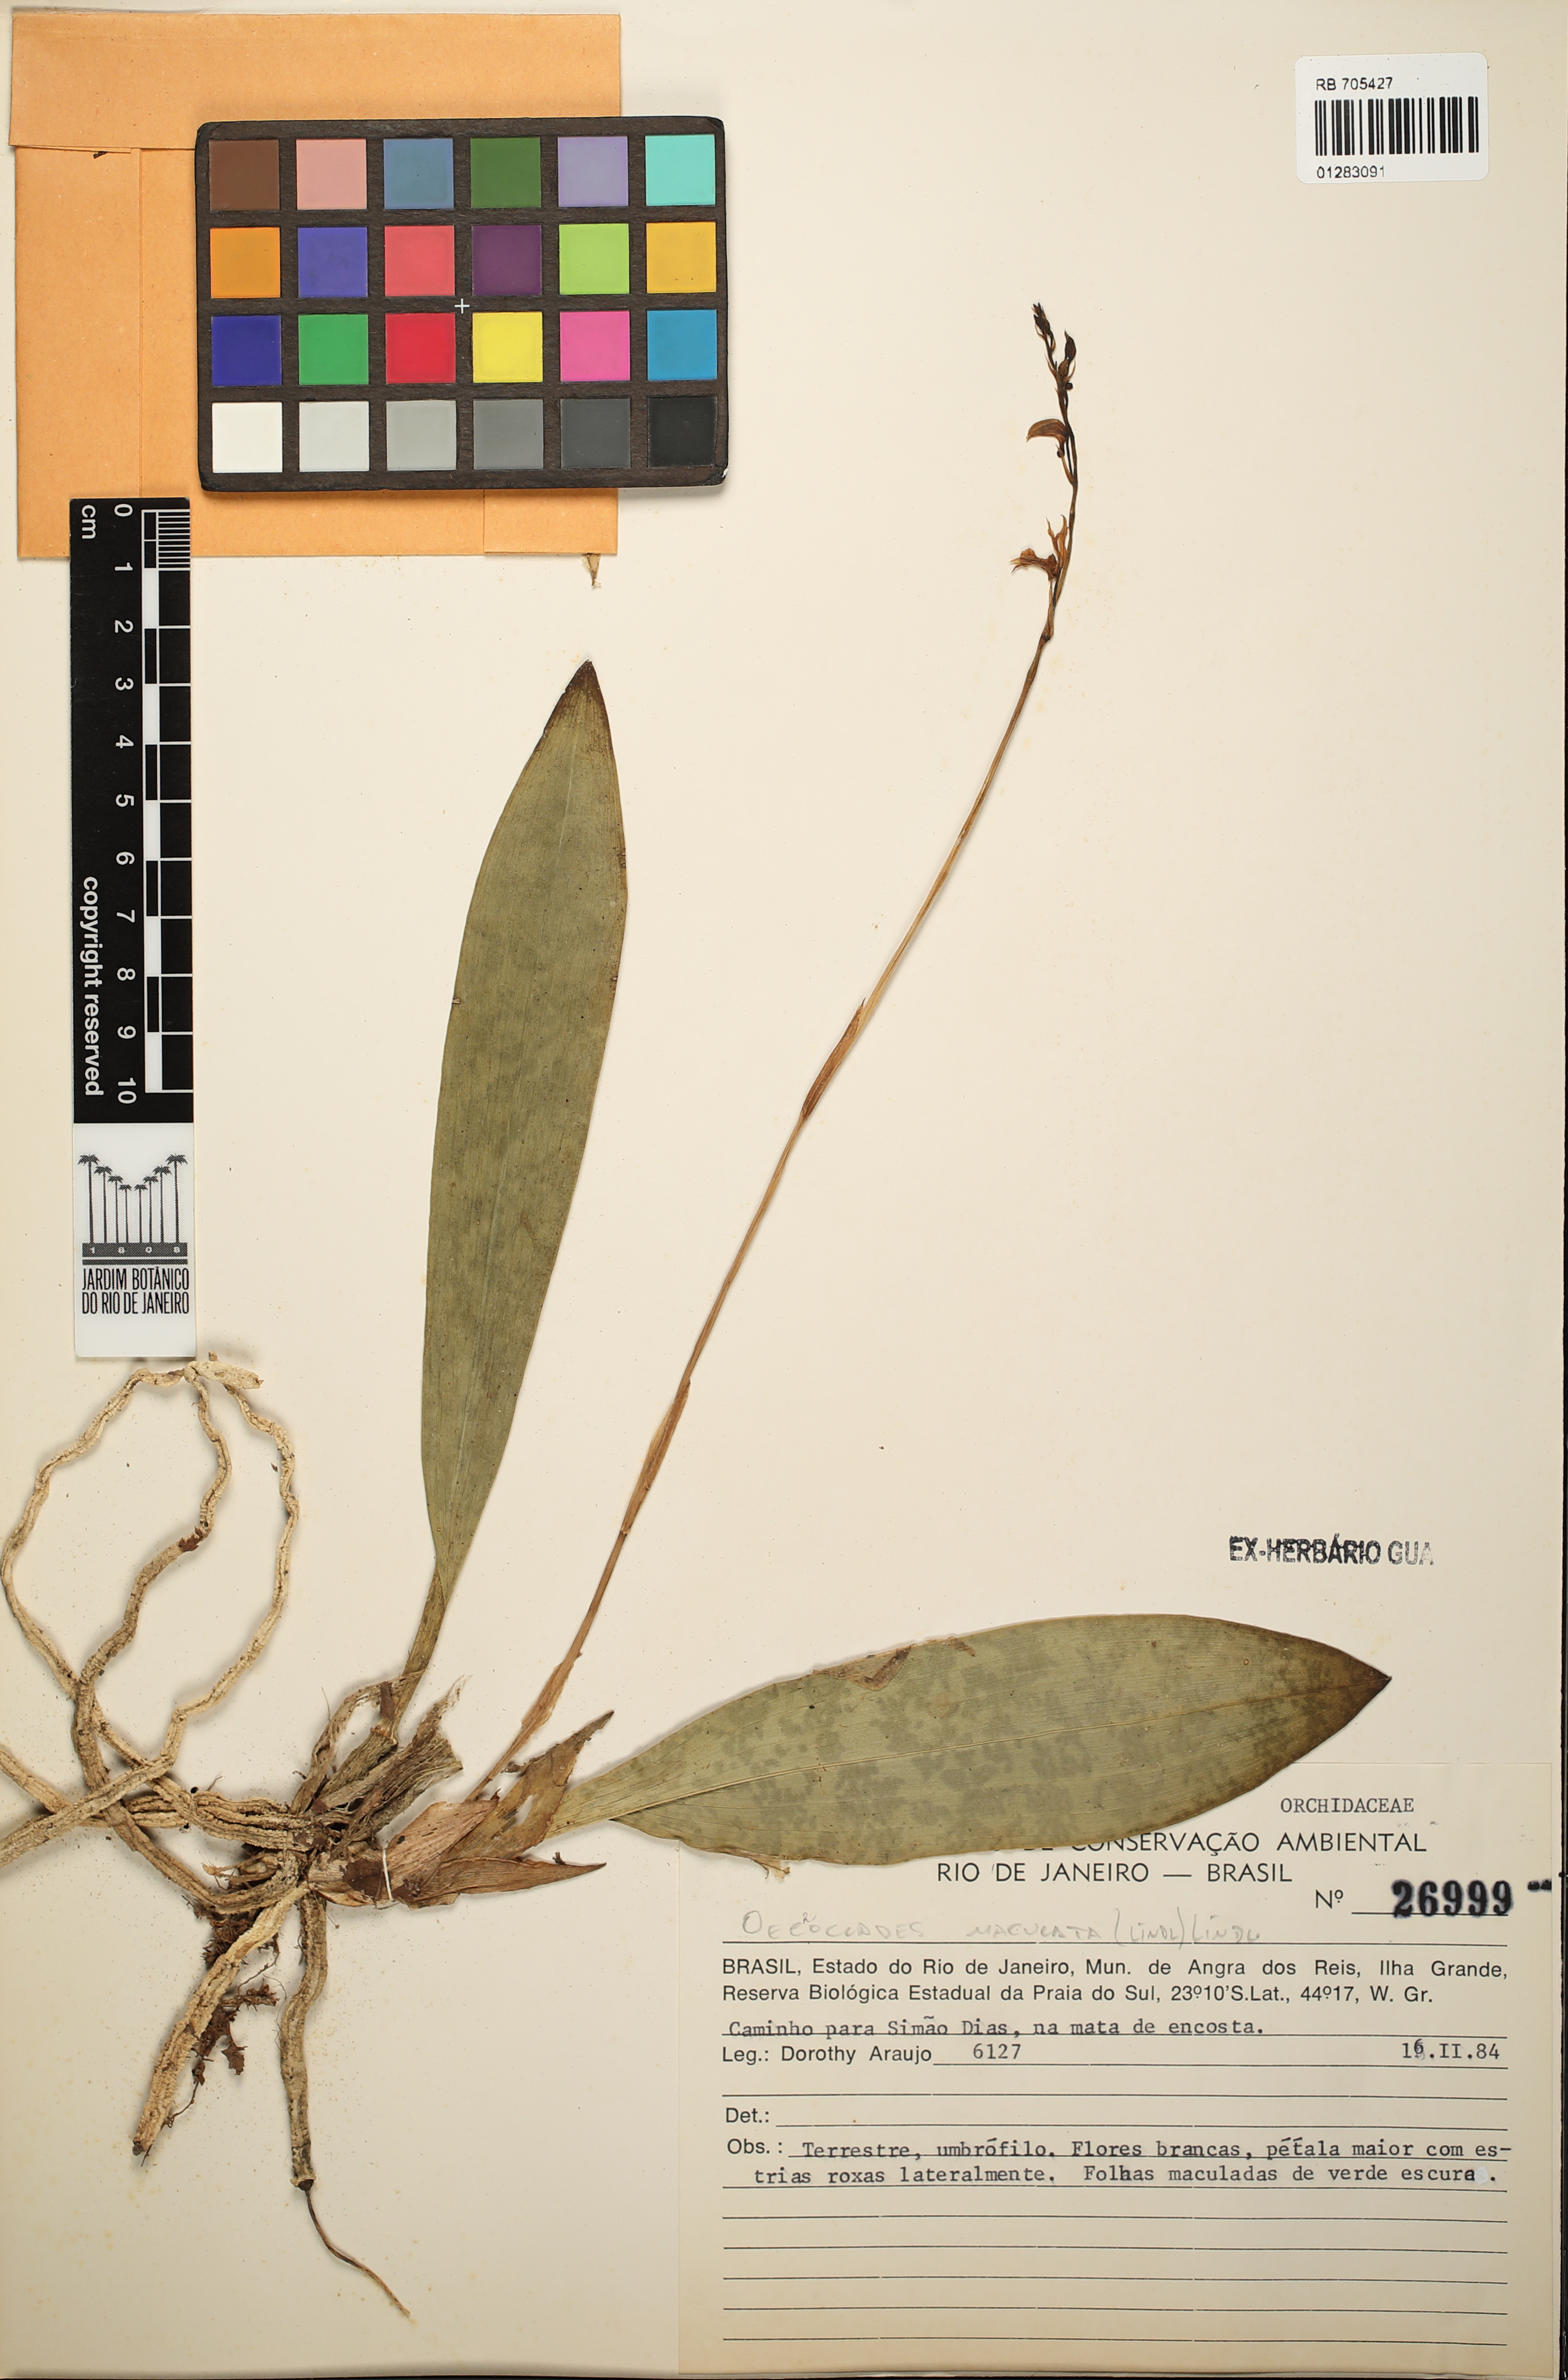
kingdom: Plantae
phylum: Tracheophyta
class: Liliopsida
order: Asparagales
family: Orchidaceae
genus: Eulophia
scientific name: Eulophia maculata
